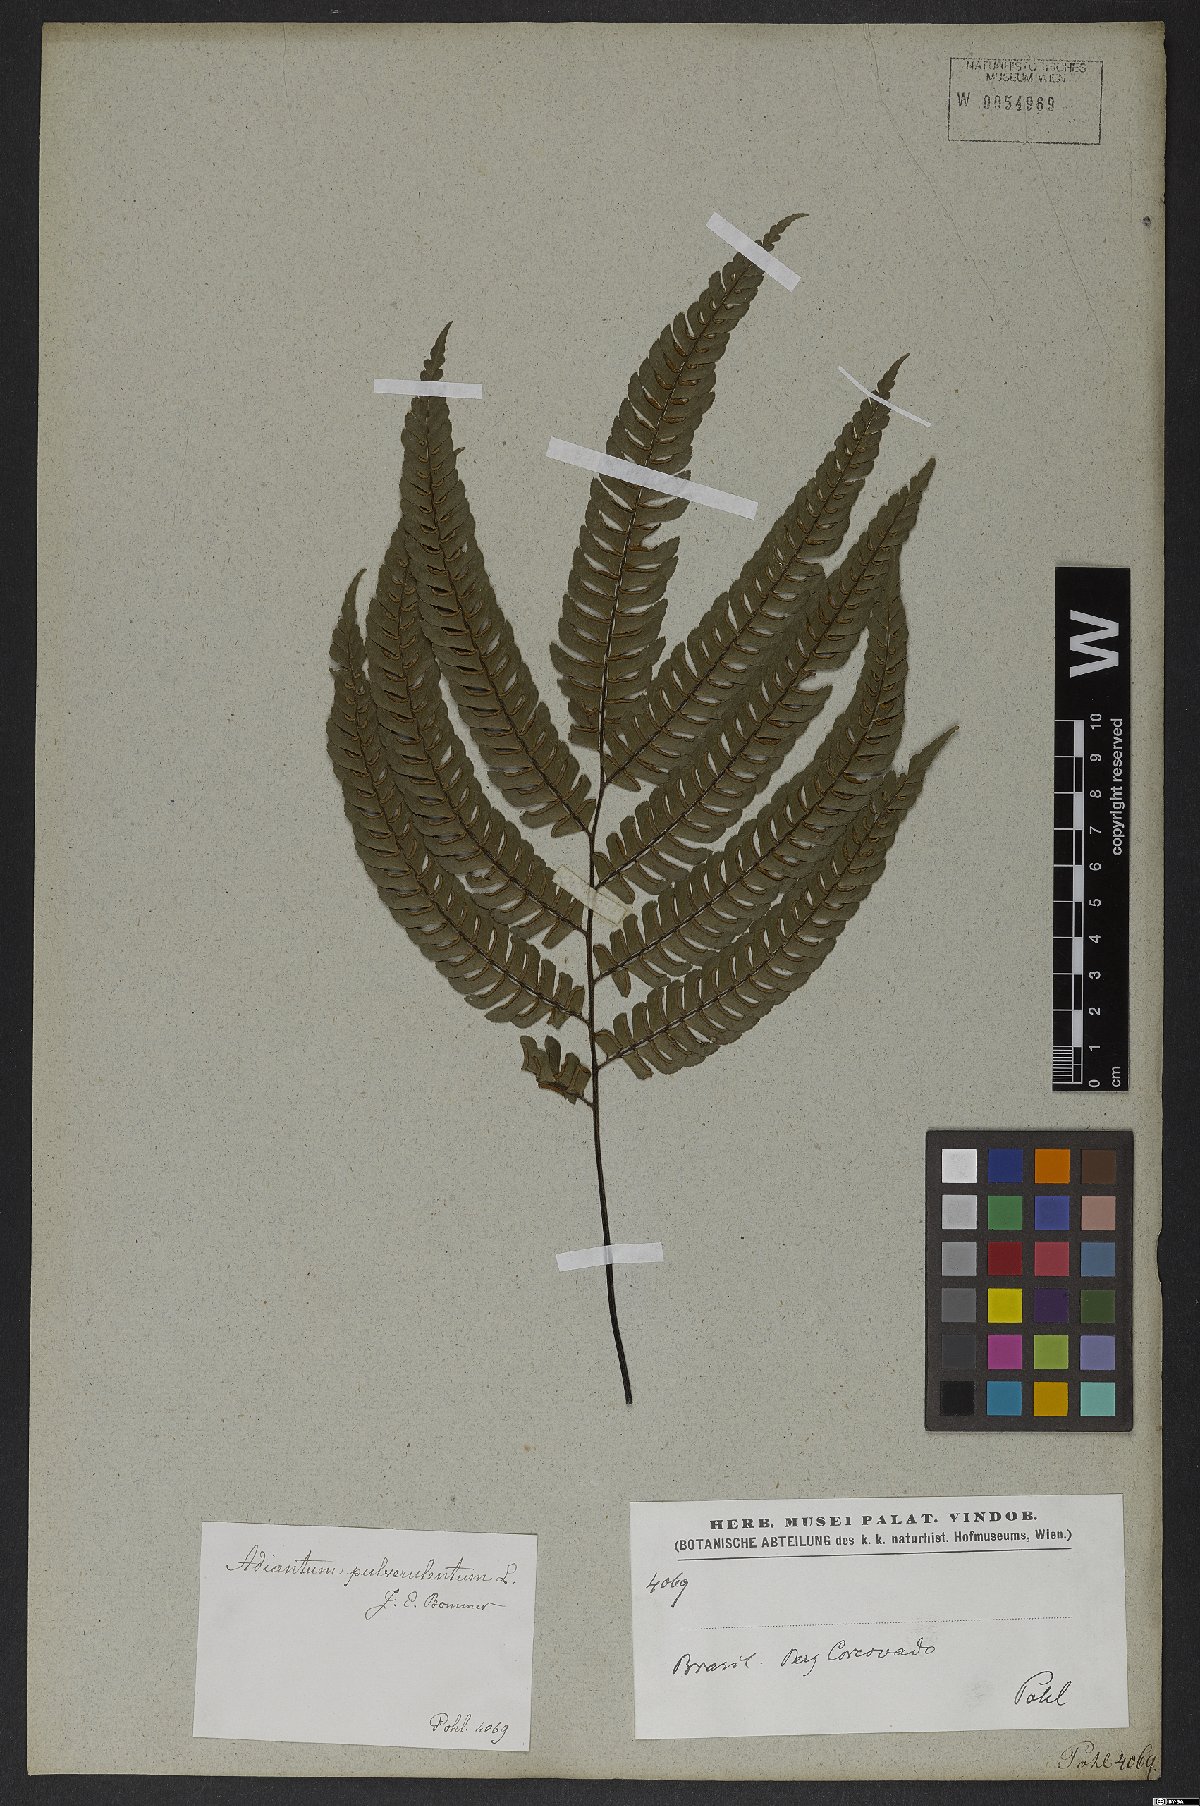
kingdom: Plantae
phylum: Tracheophyta
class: Polypodiopsida
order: Polypodiales
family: Pteridaceae
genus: Adiantum
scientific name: Adiantum pulverulentum
